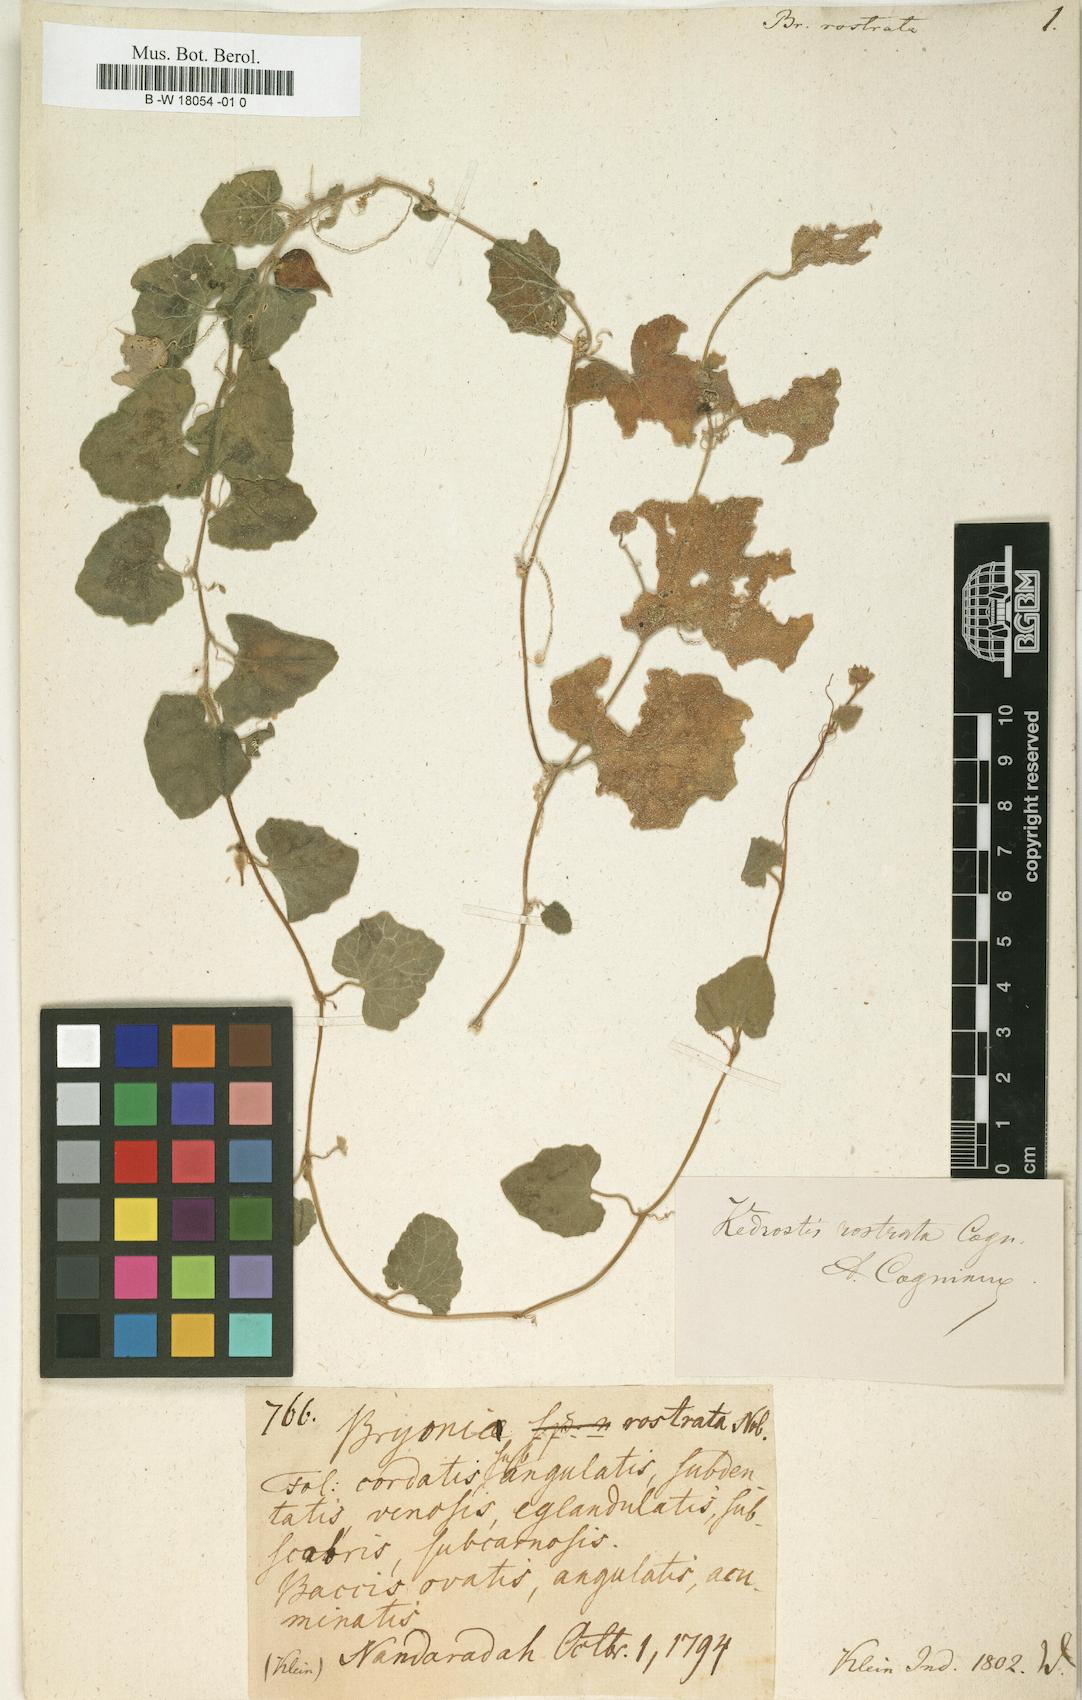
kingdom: Plantae
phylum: Tracheophyta
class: Magnoliopsida
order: Cucurbitales
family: Cucurbitaceae
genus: Kedrostis
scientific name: Kedrostis foetidissima
